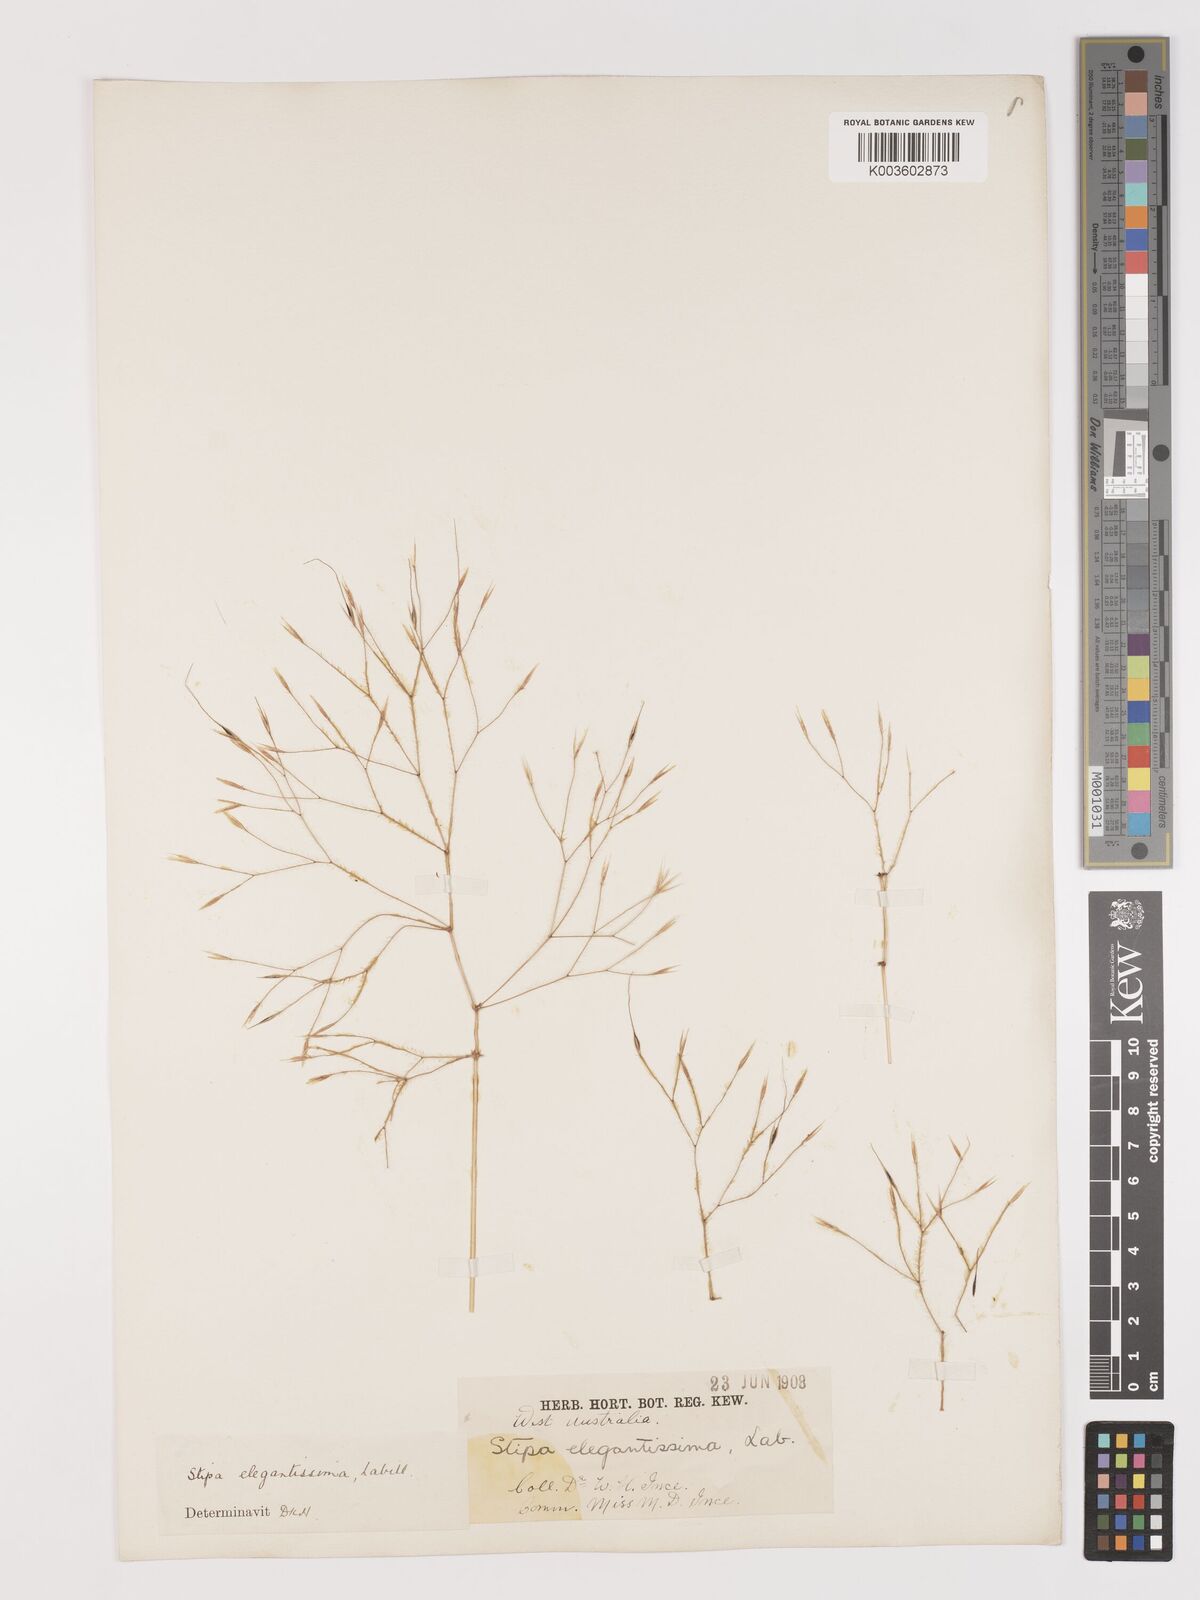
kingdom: Plantae
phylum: Tracheophyta
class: Liliopsida
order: Poales
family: Poaceae
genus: Austrostipa
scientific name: Austrostipa elegantissima
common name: Feather spear grass
